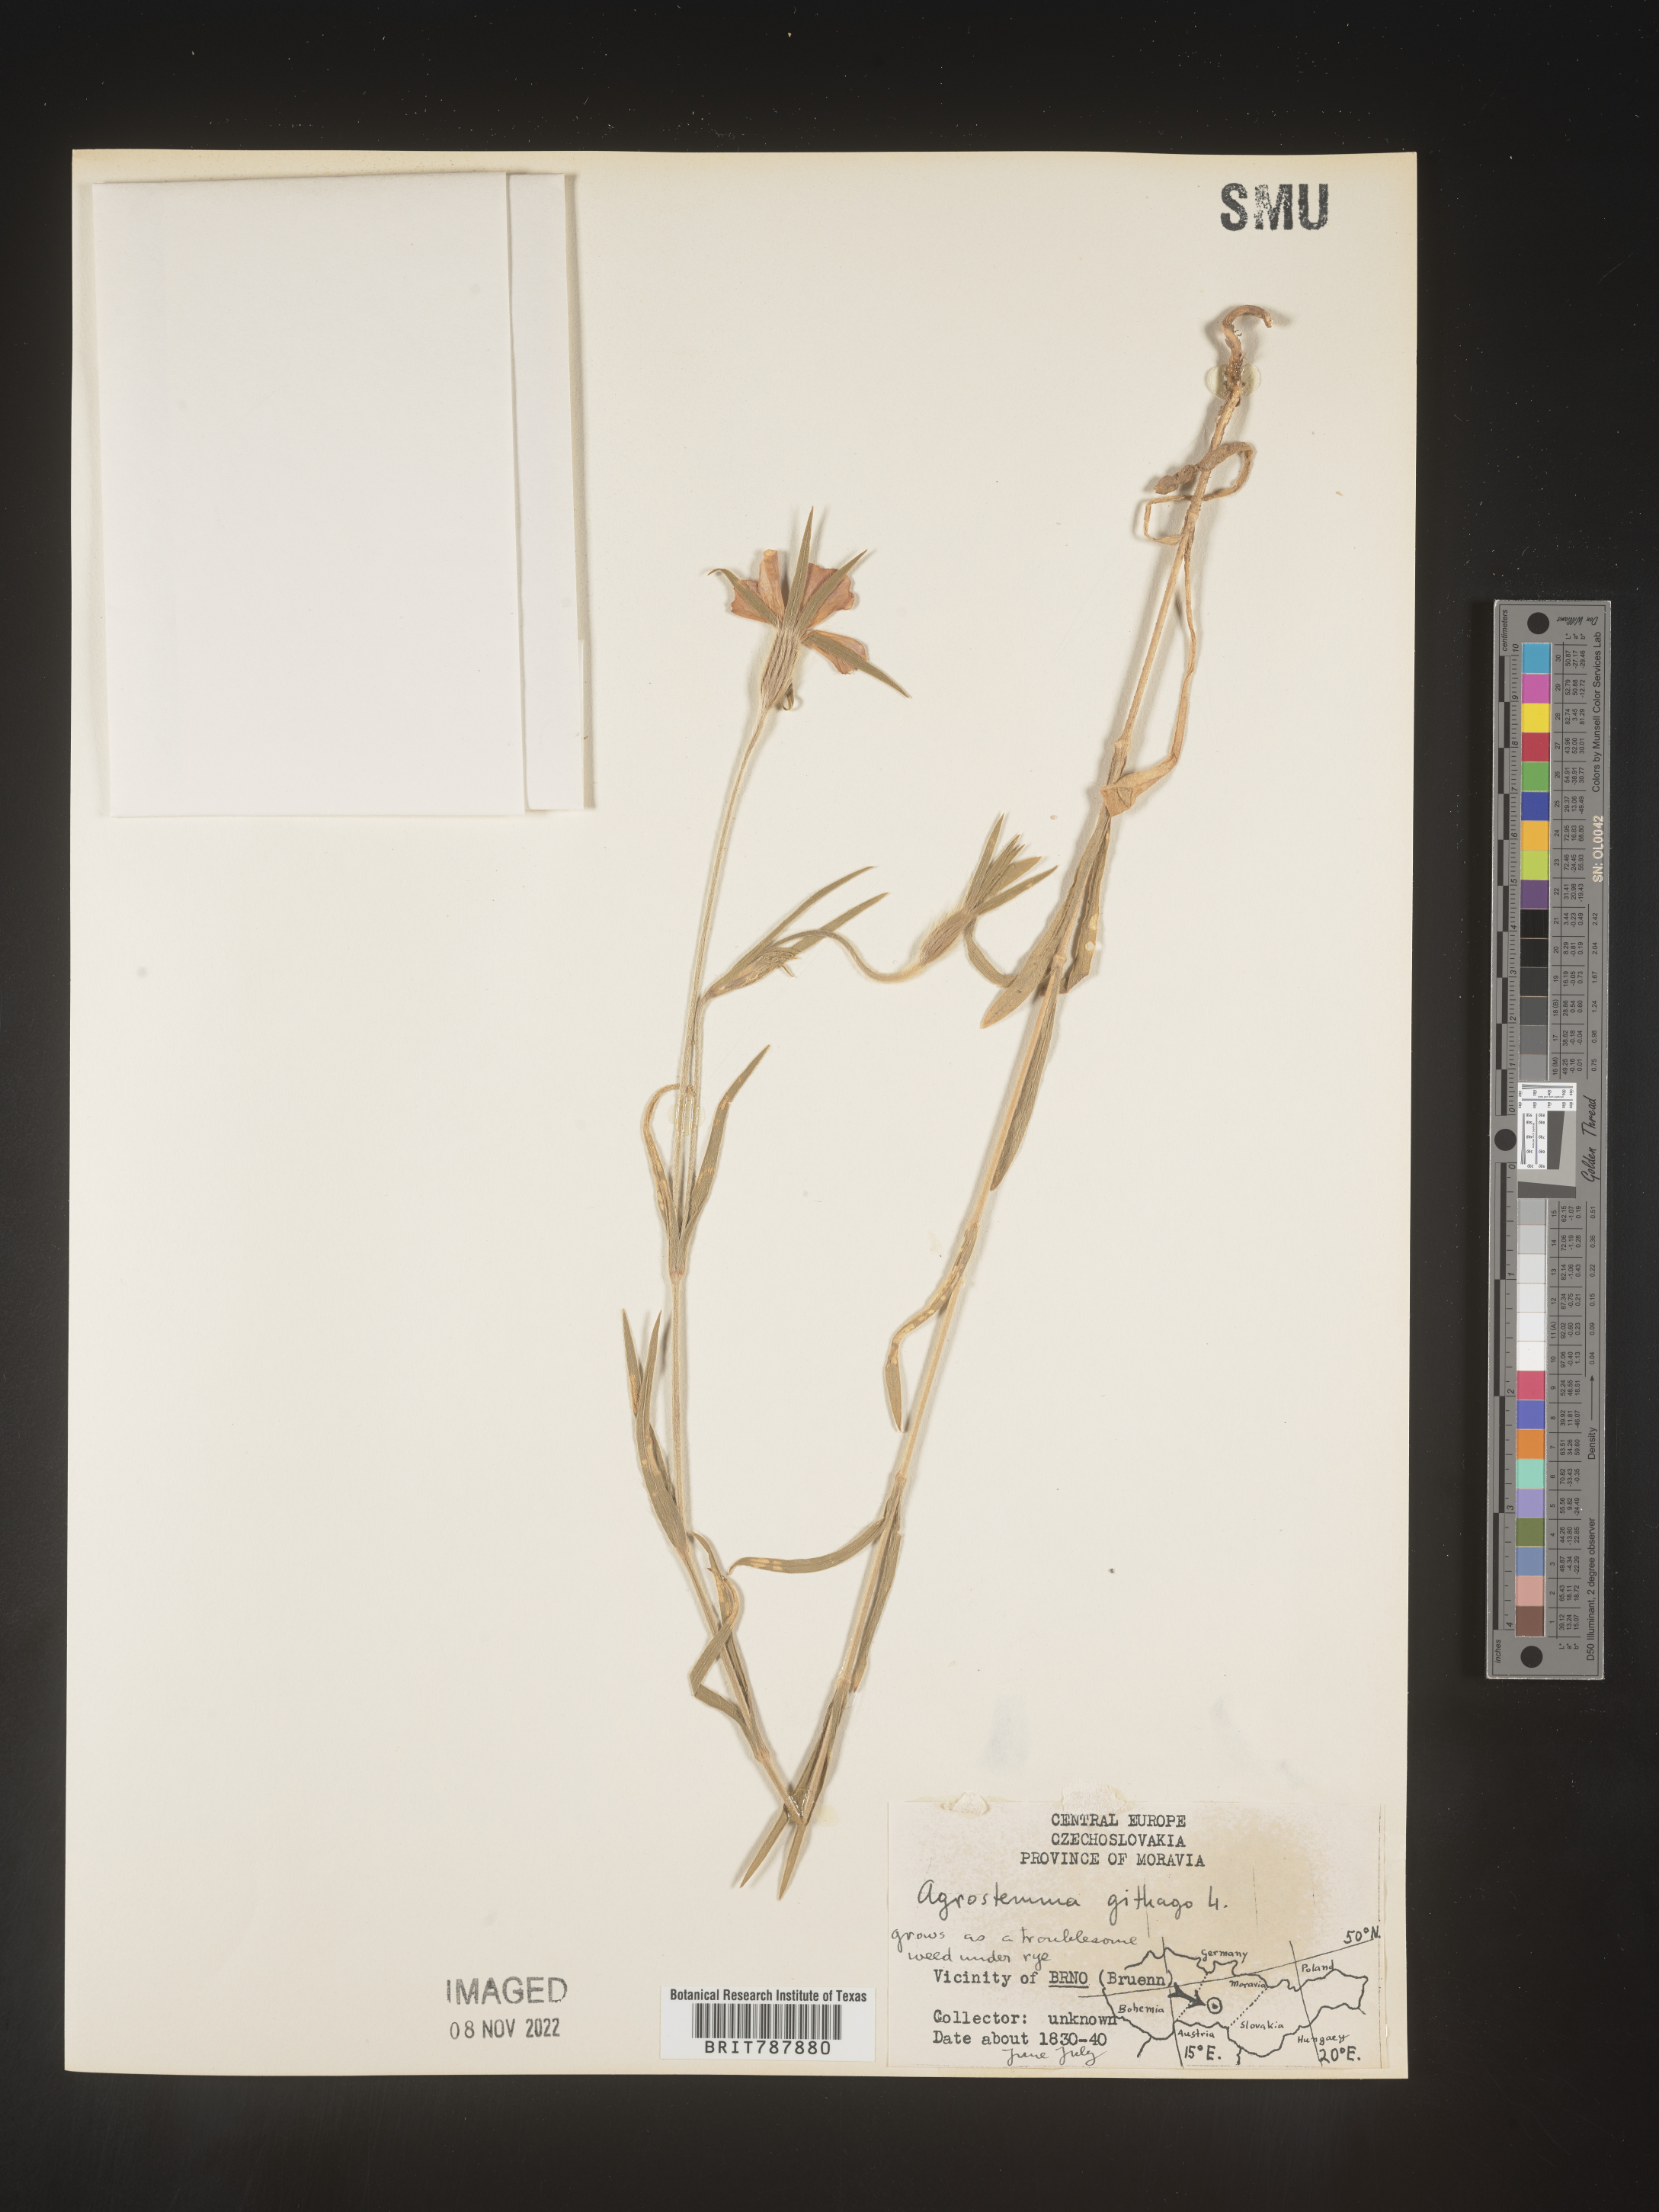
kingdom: Plantae
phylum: Tracheophyta
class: Magnoliopsida
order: Caryophyllales
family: Caryophyllaceae
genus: Agrostemma
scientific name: Agrostemma
